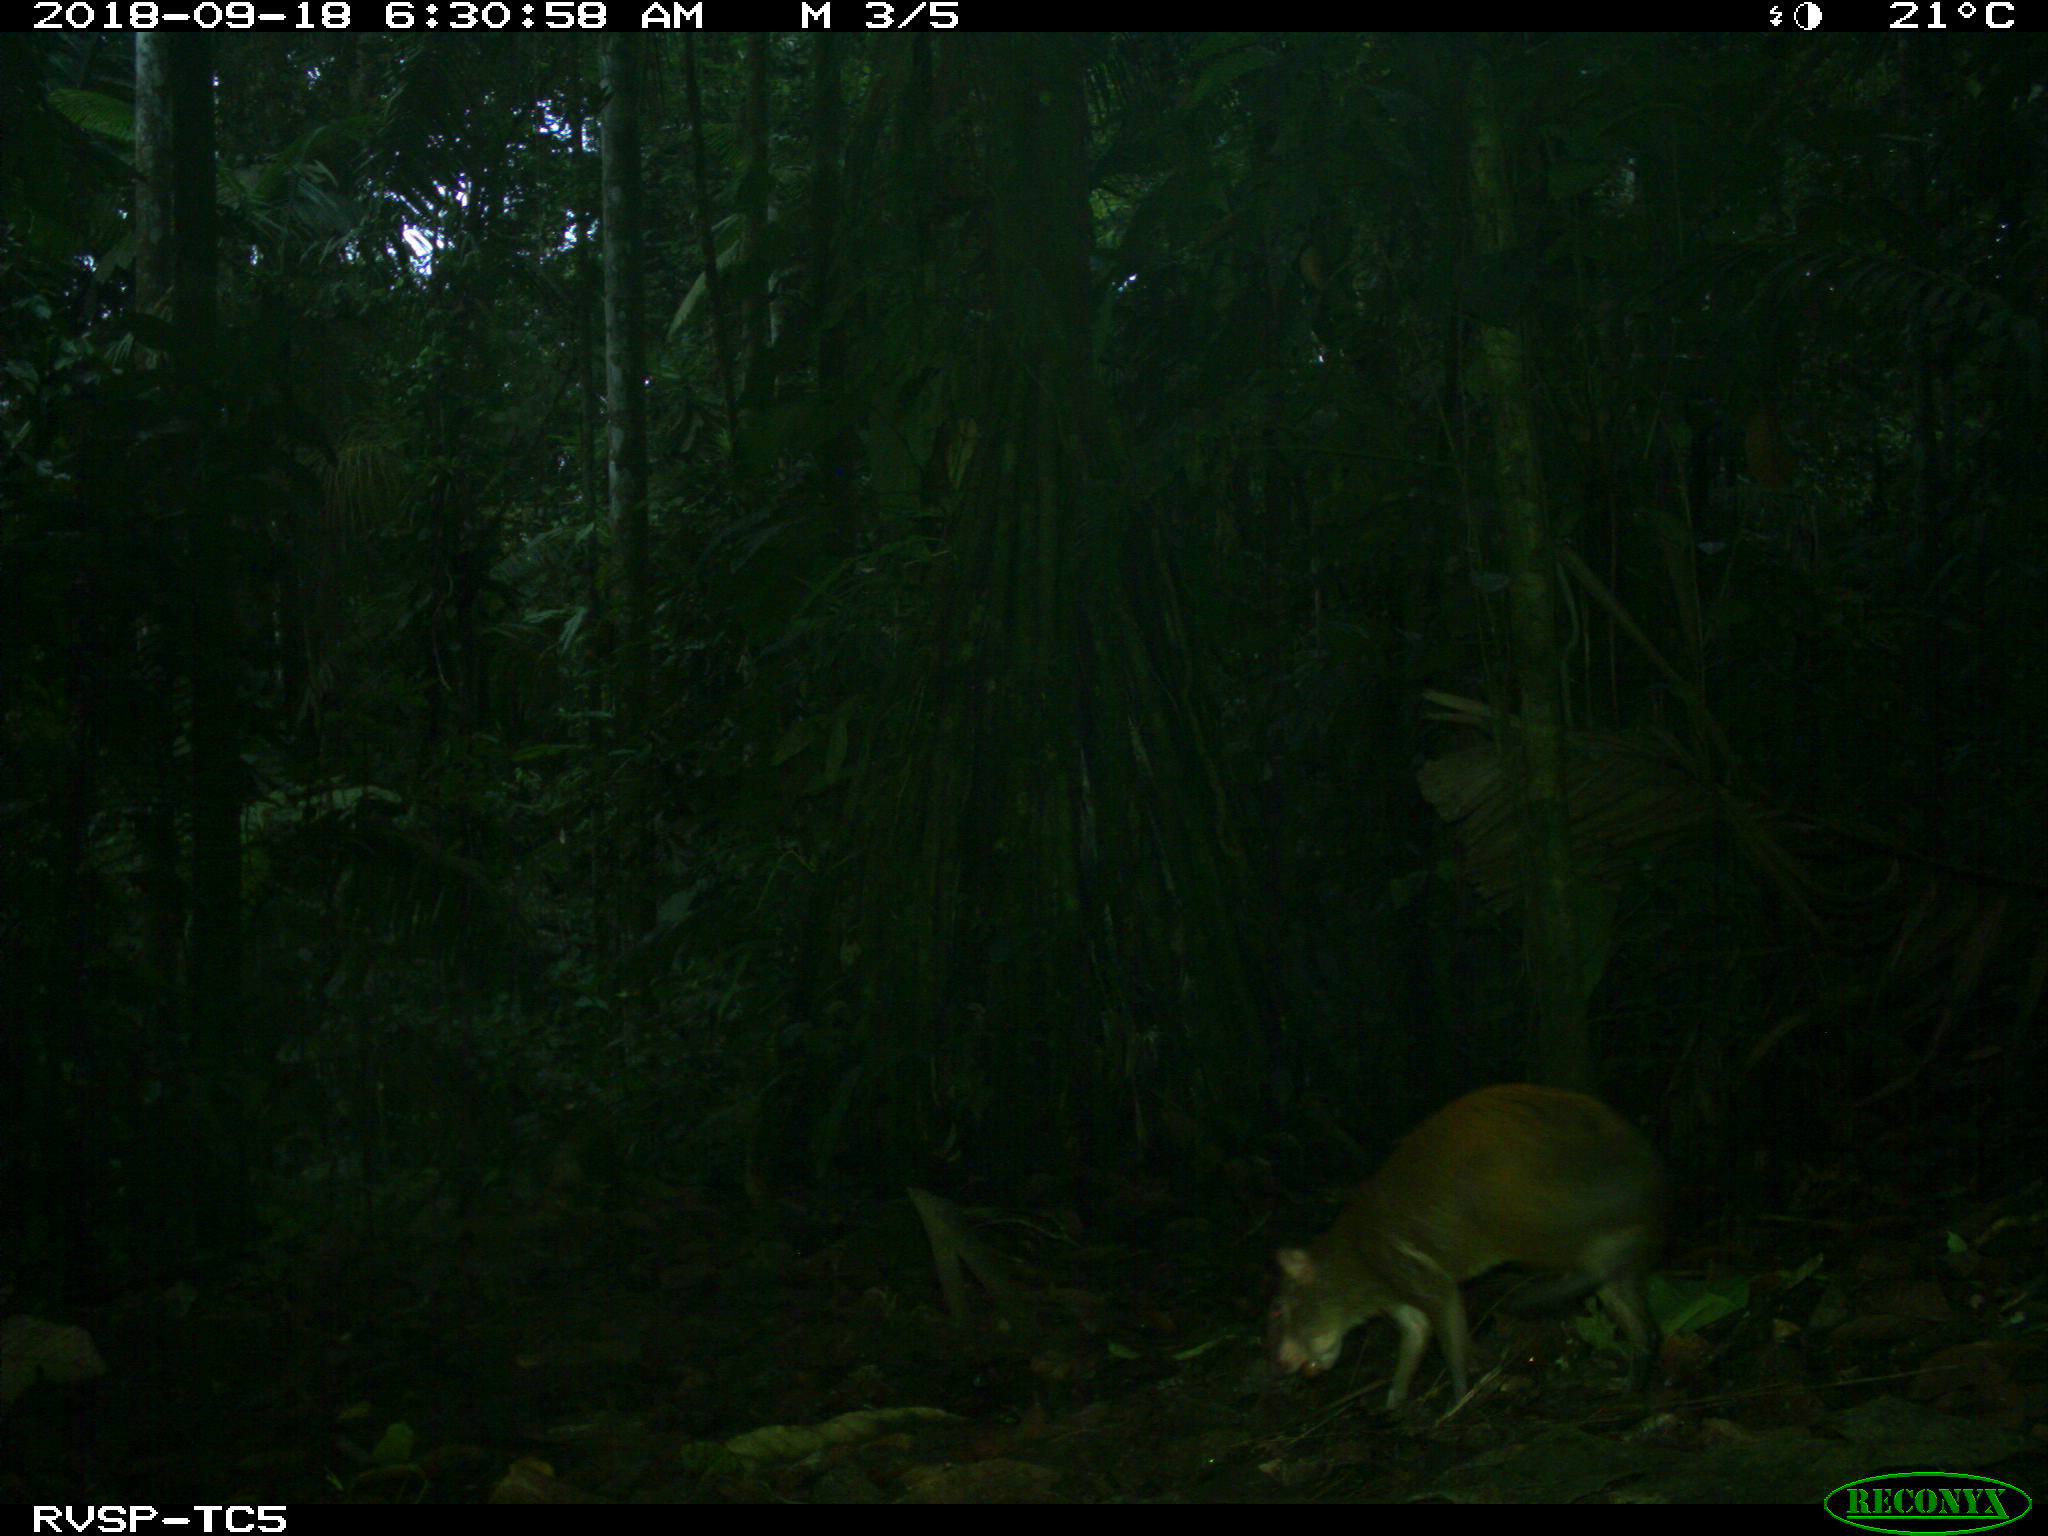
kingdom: Animalia
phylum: Chordata
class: Mammalia
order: Rodentia
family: Dasyproctidae
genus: Dasyprocta
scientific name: Dasyprocta punctata
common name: Central american agouti
